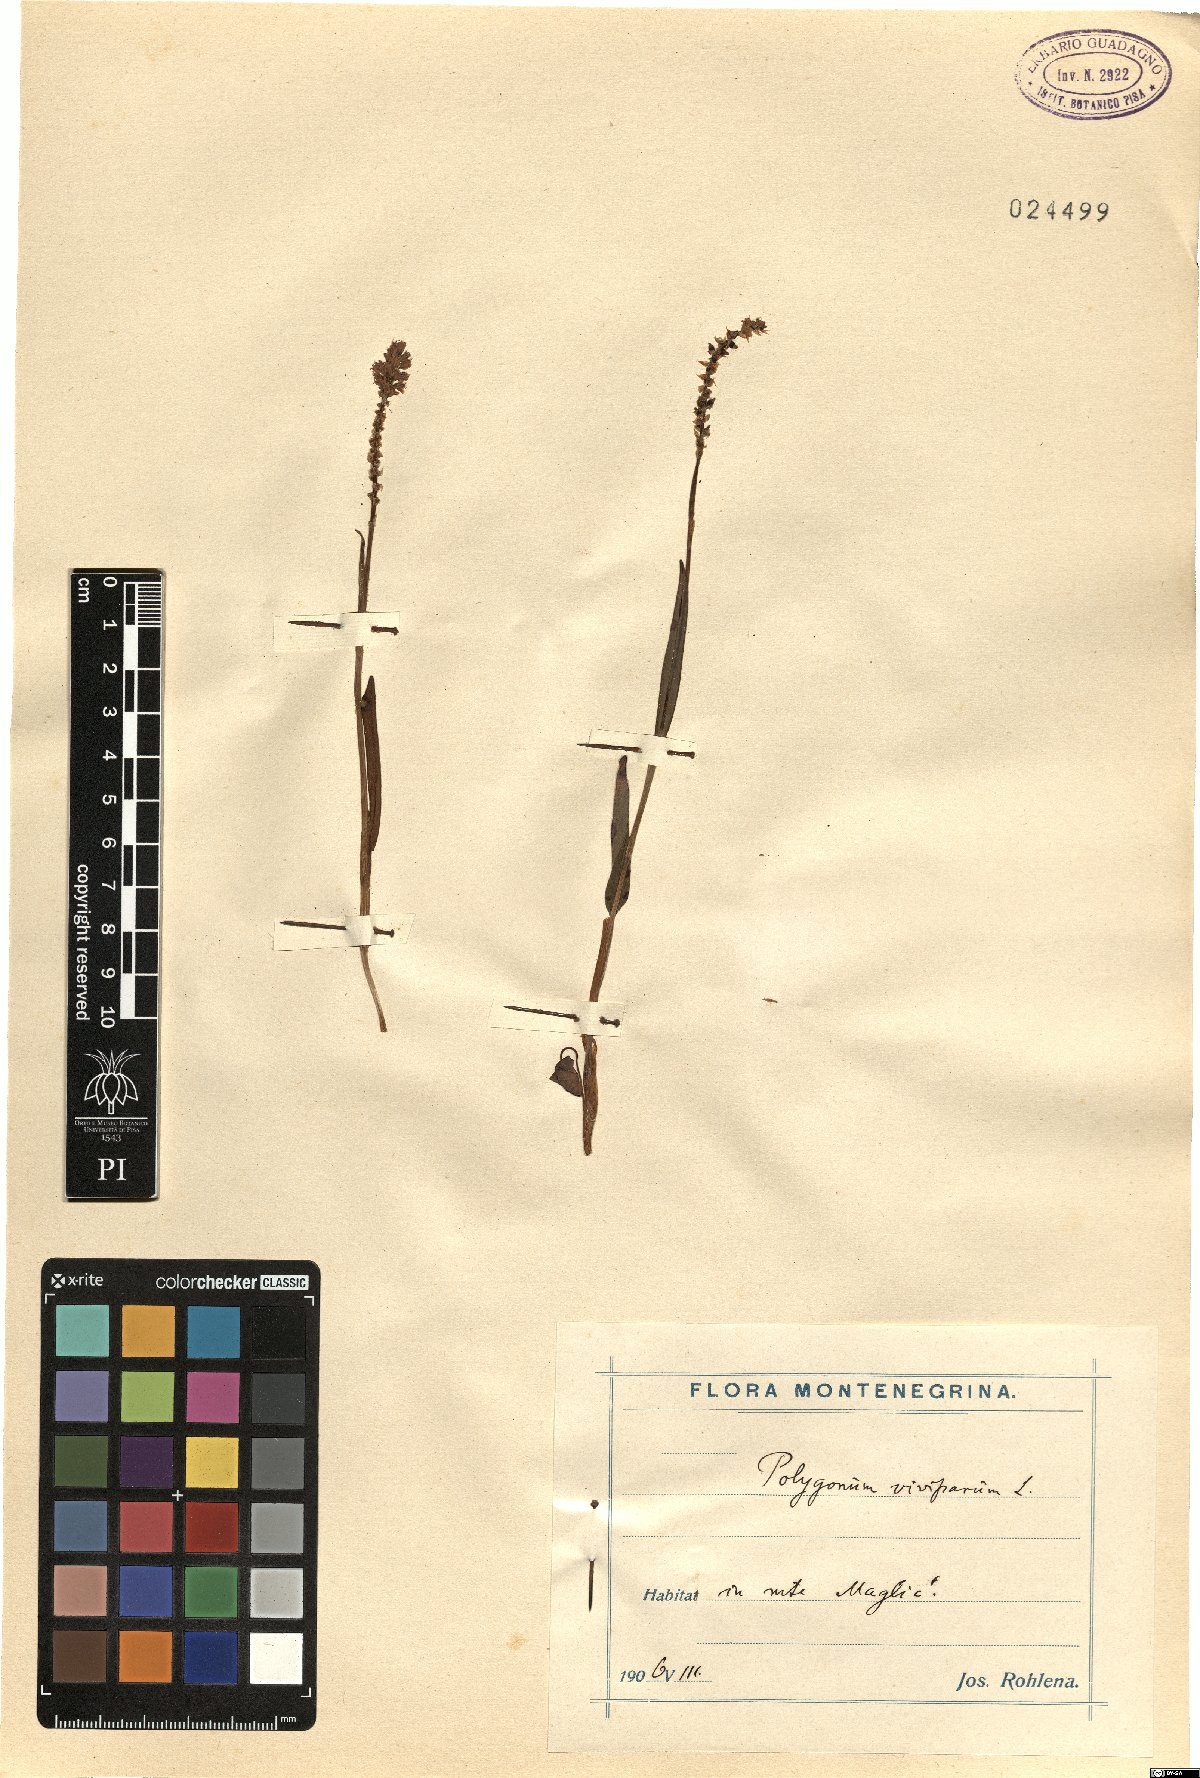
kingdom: Plantae
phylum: Tracheophyta
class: Magnoliopsida
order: Caryophyllales
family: Polygonaceae
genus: Bistorta
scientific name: Bistorta vivipara
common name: Alpine bistort
